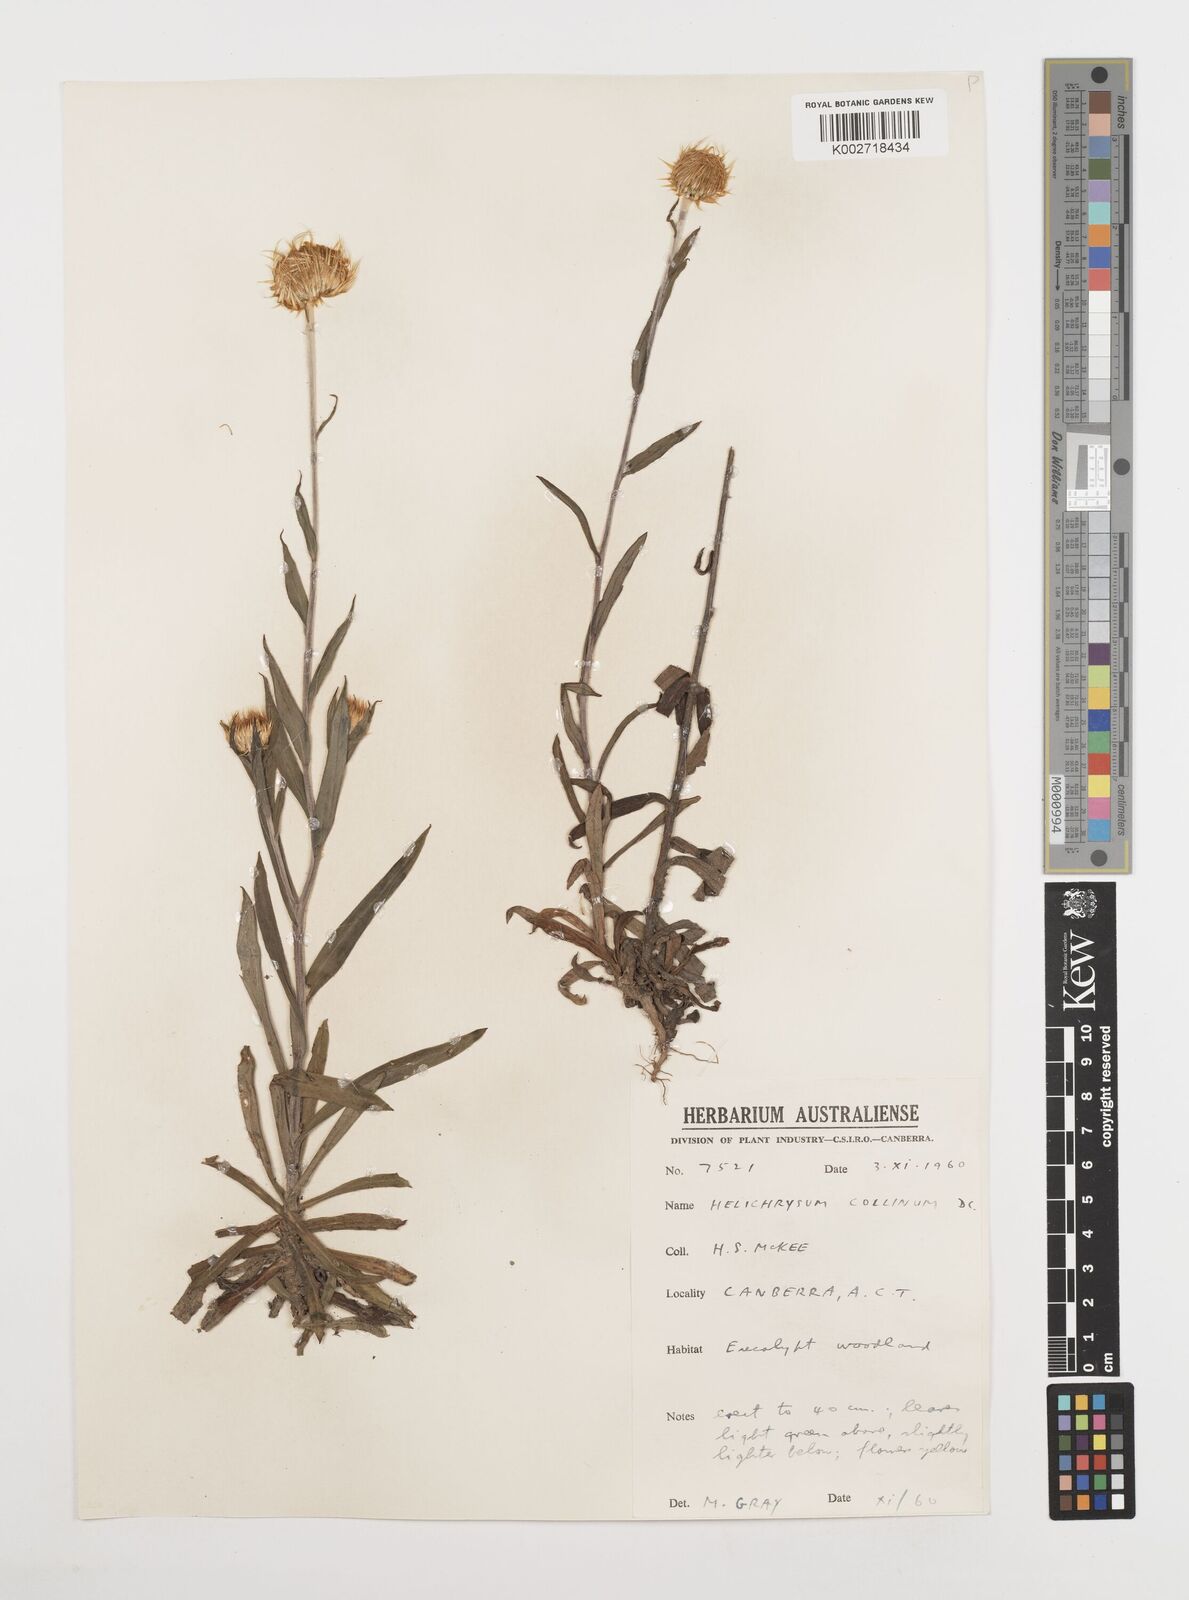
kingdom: Plantae
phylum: Tracheophyta
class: Magnoliopsida
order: Asterales
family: Asteraceae
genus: Coronidium
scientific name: Coronidium rupicola
